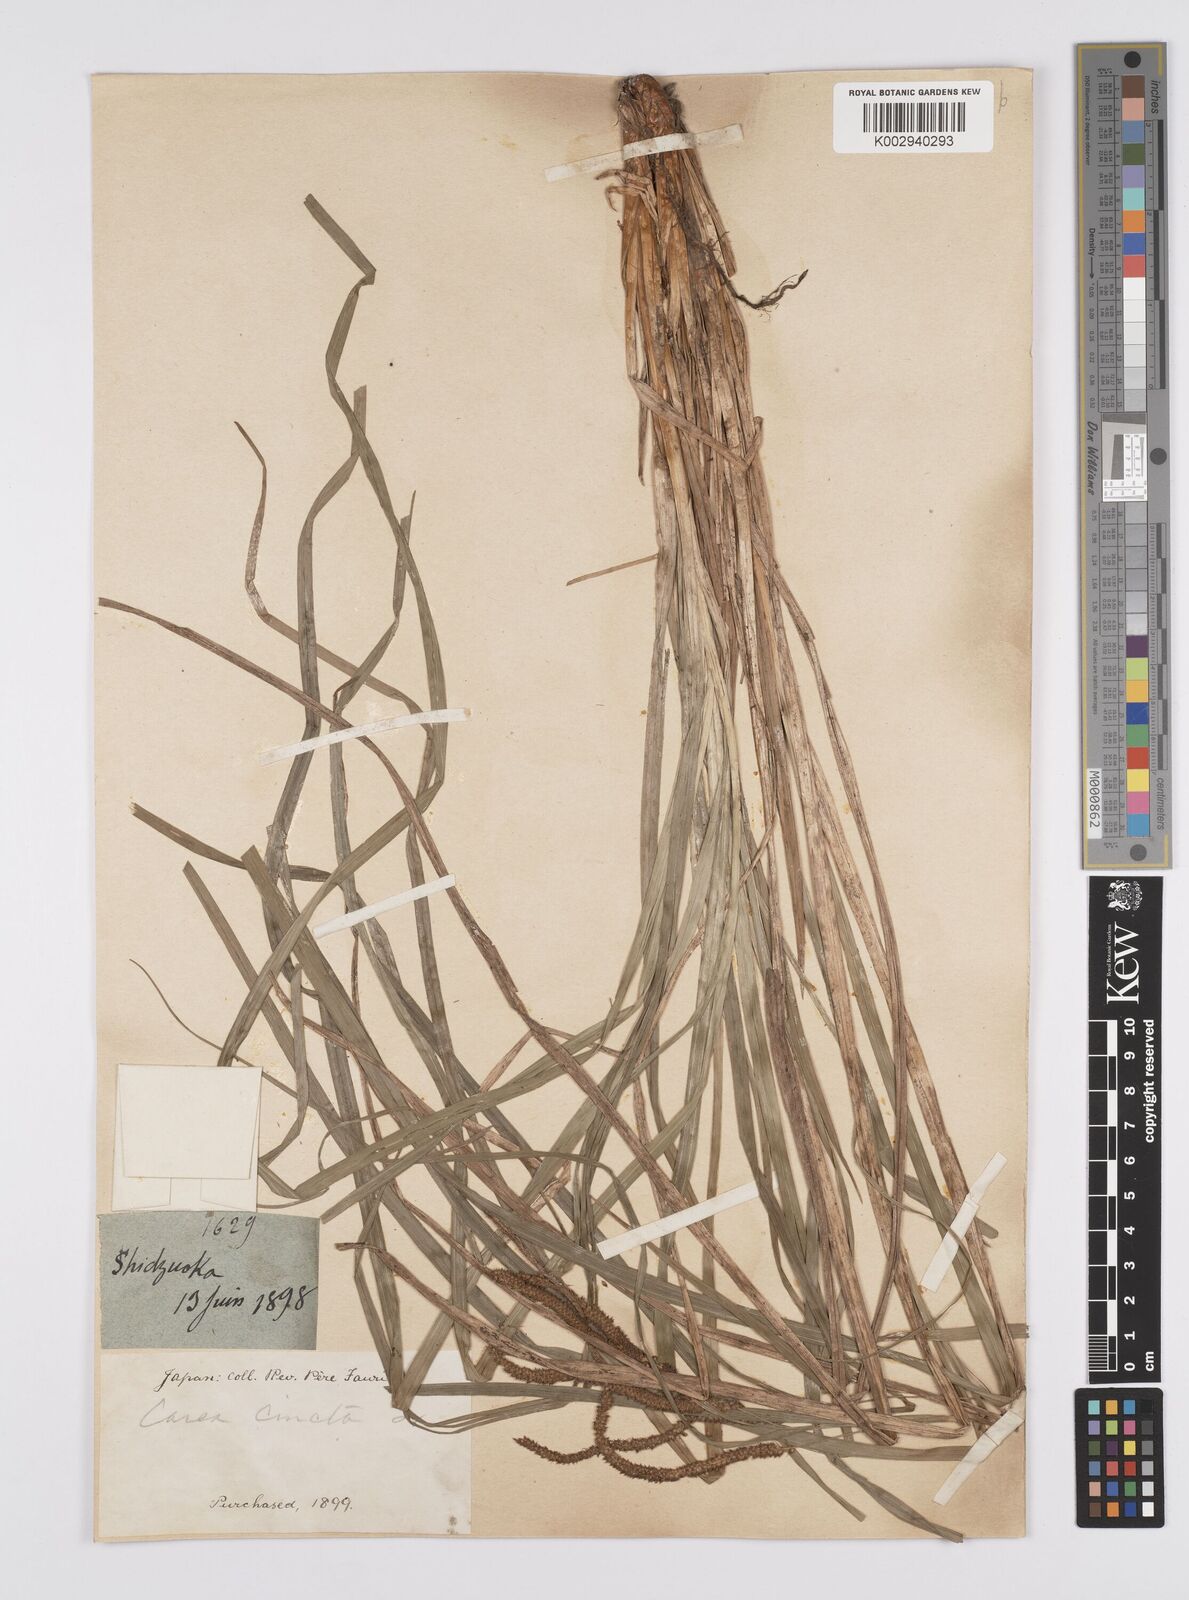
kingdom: Plantae
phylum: Tracheophyta
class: Liliopsida
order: Poales
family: Cyperaceae
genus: Carex
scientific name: Carex phacota
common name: Lakeshore sedge
